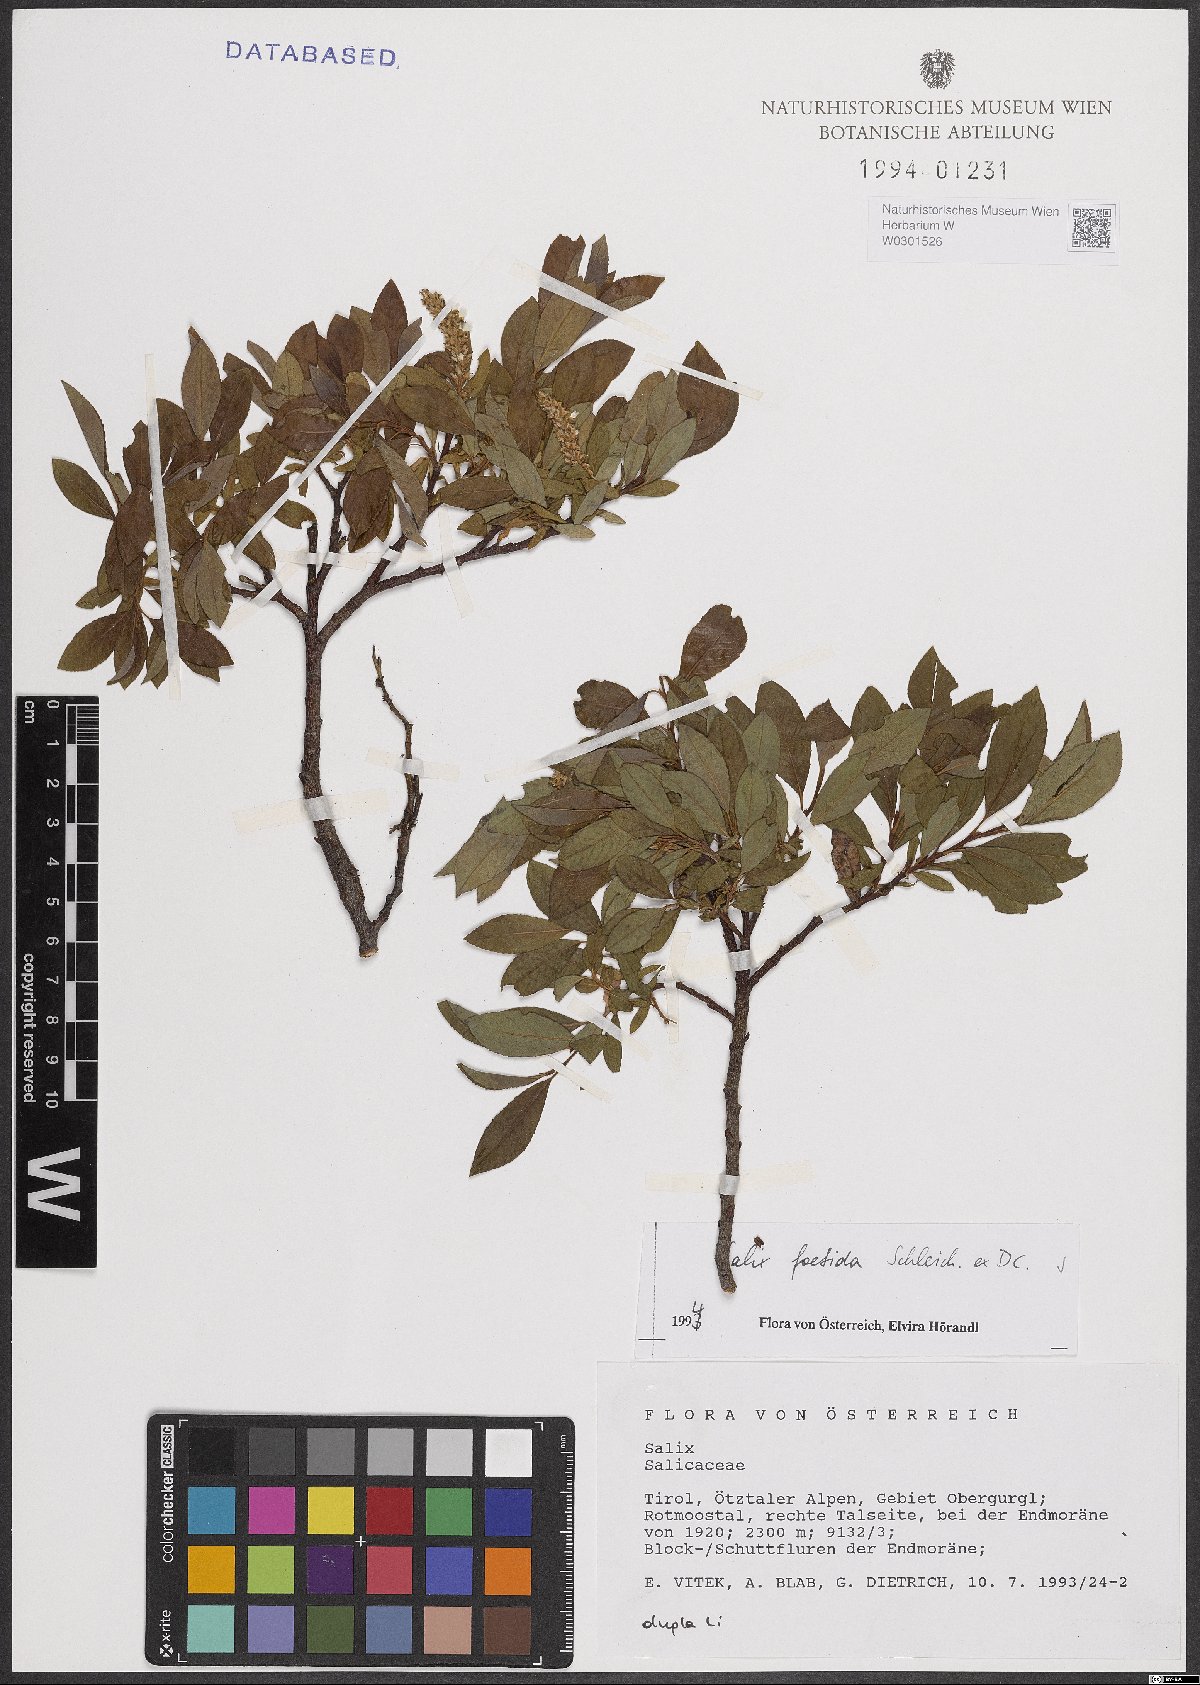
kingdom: Plantae
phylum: Tracheophyta
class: Magnoliopsida
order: Malpighiales
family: Salicaceae
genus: Salix
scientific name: Salix foetida
